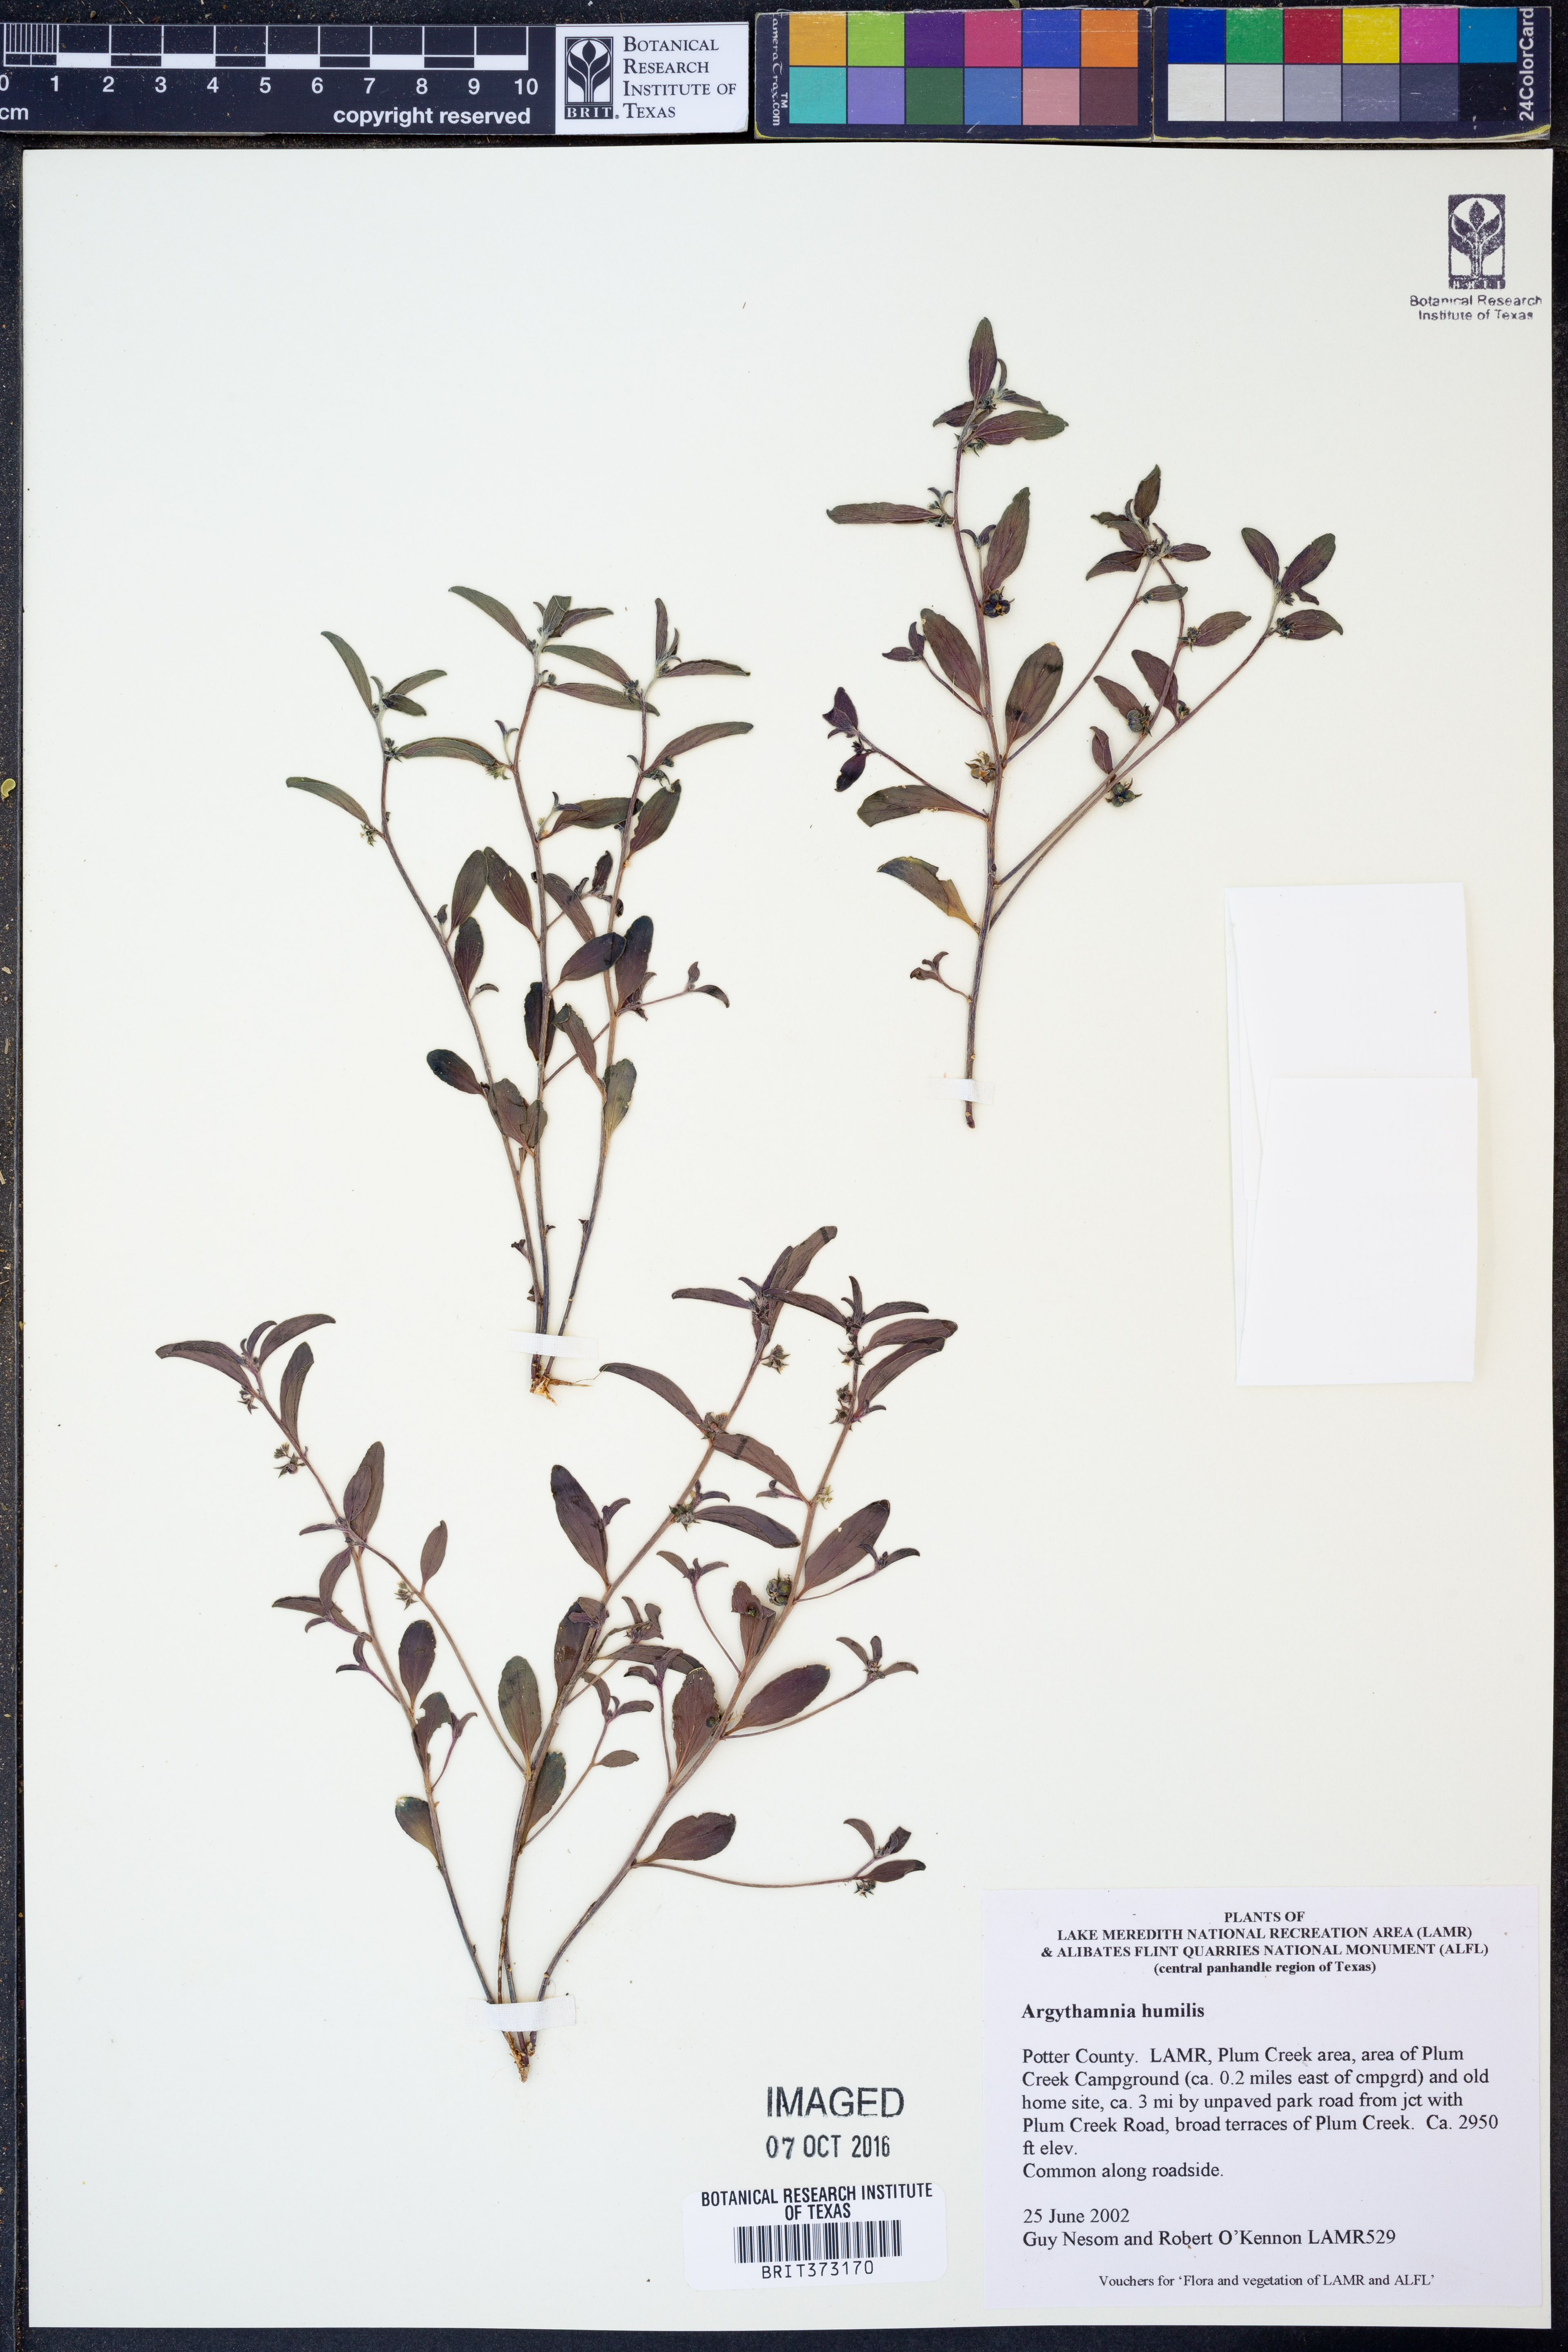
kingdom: Plantae
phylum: Tracheophyta
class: Magnoliopsida
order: Malpighiales
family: Euphorbiaceae
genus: Ditaxis
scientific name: Ditaxis humilis
